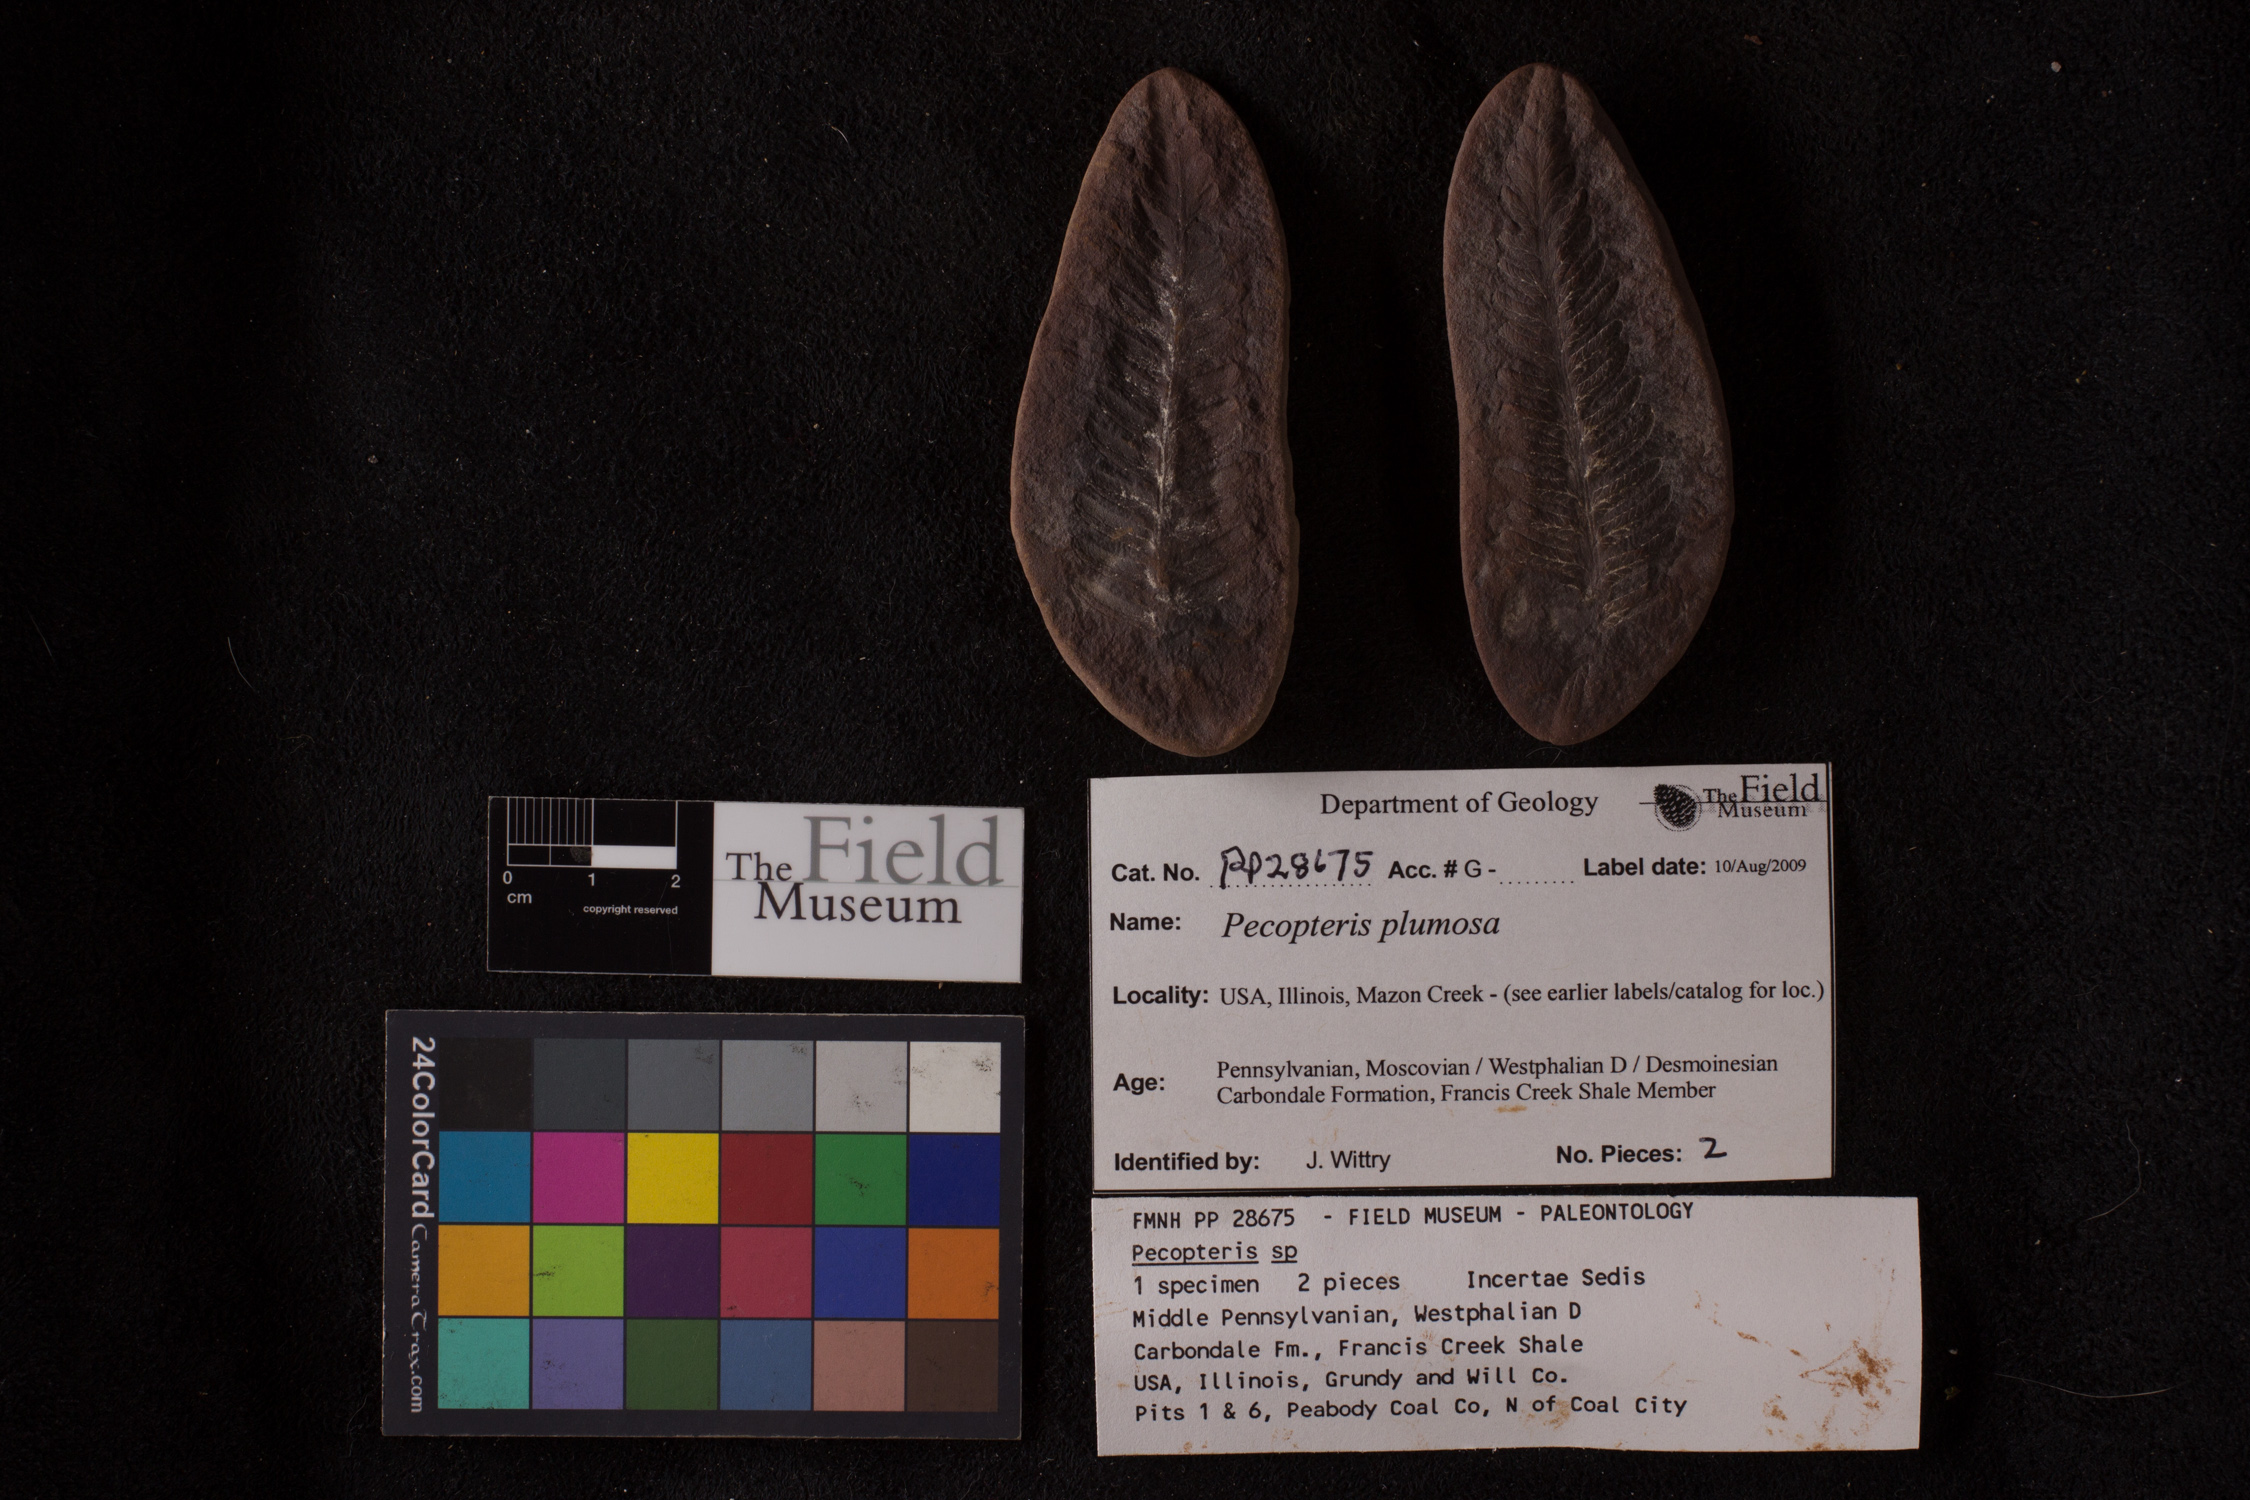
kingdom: Plantae
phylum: Tracheophyta
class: Polypodiopsida
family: Tedeleaceae
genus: Senftenbergia
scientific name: Senftenbergia
